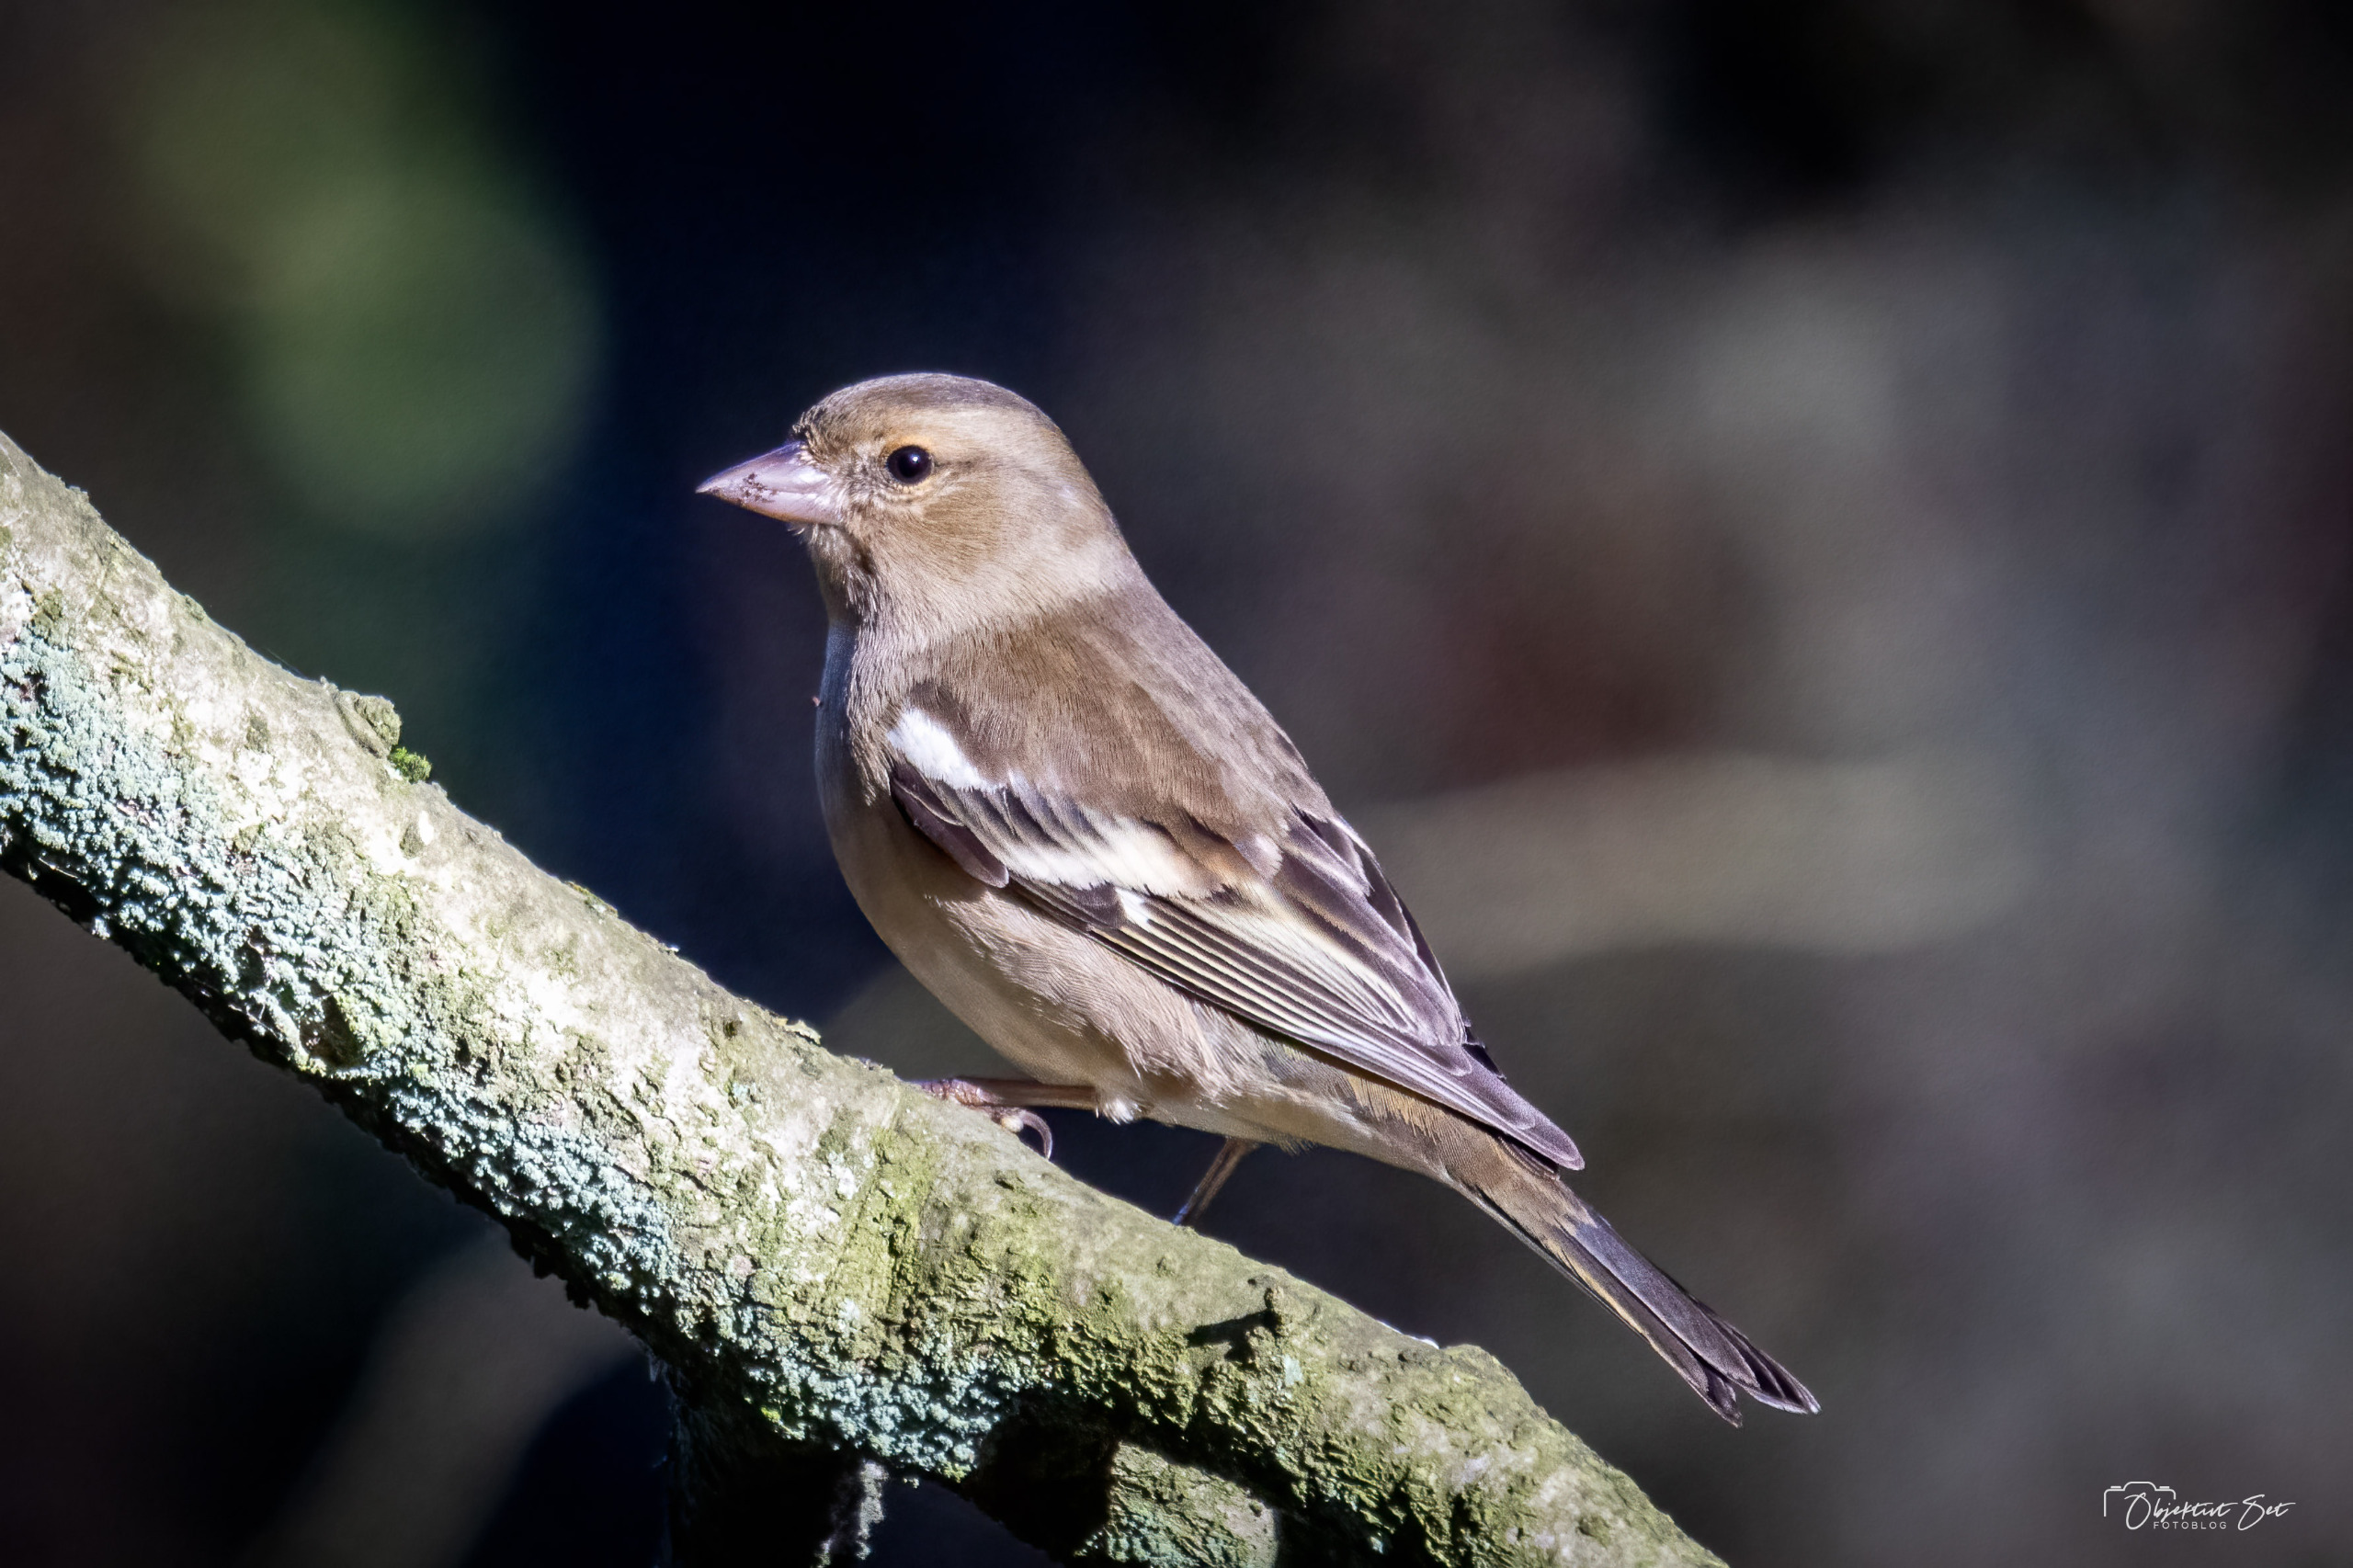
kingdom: Animalia
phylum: Chordata
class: Aves
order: Passeriformes
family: Fringillidae
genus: Fringilla
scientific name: Fringilla coelebs
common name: Bogfinke
